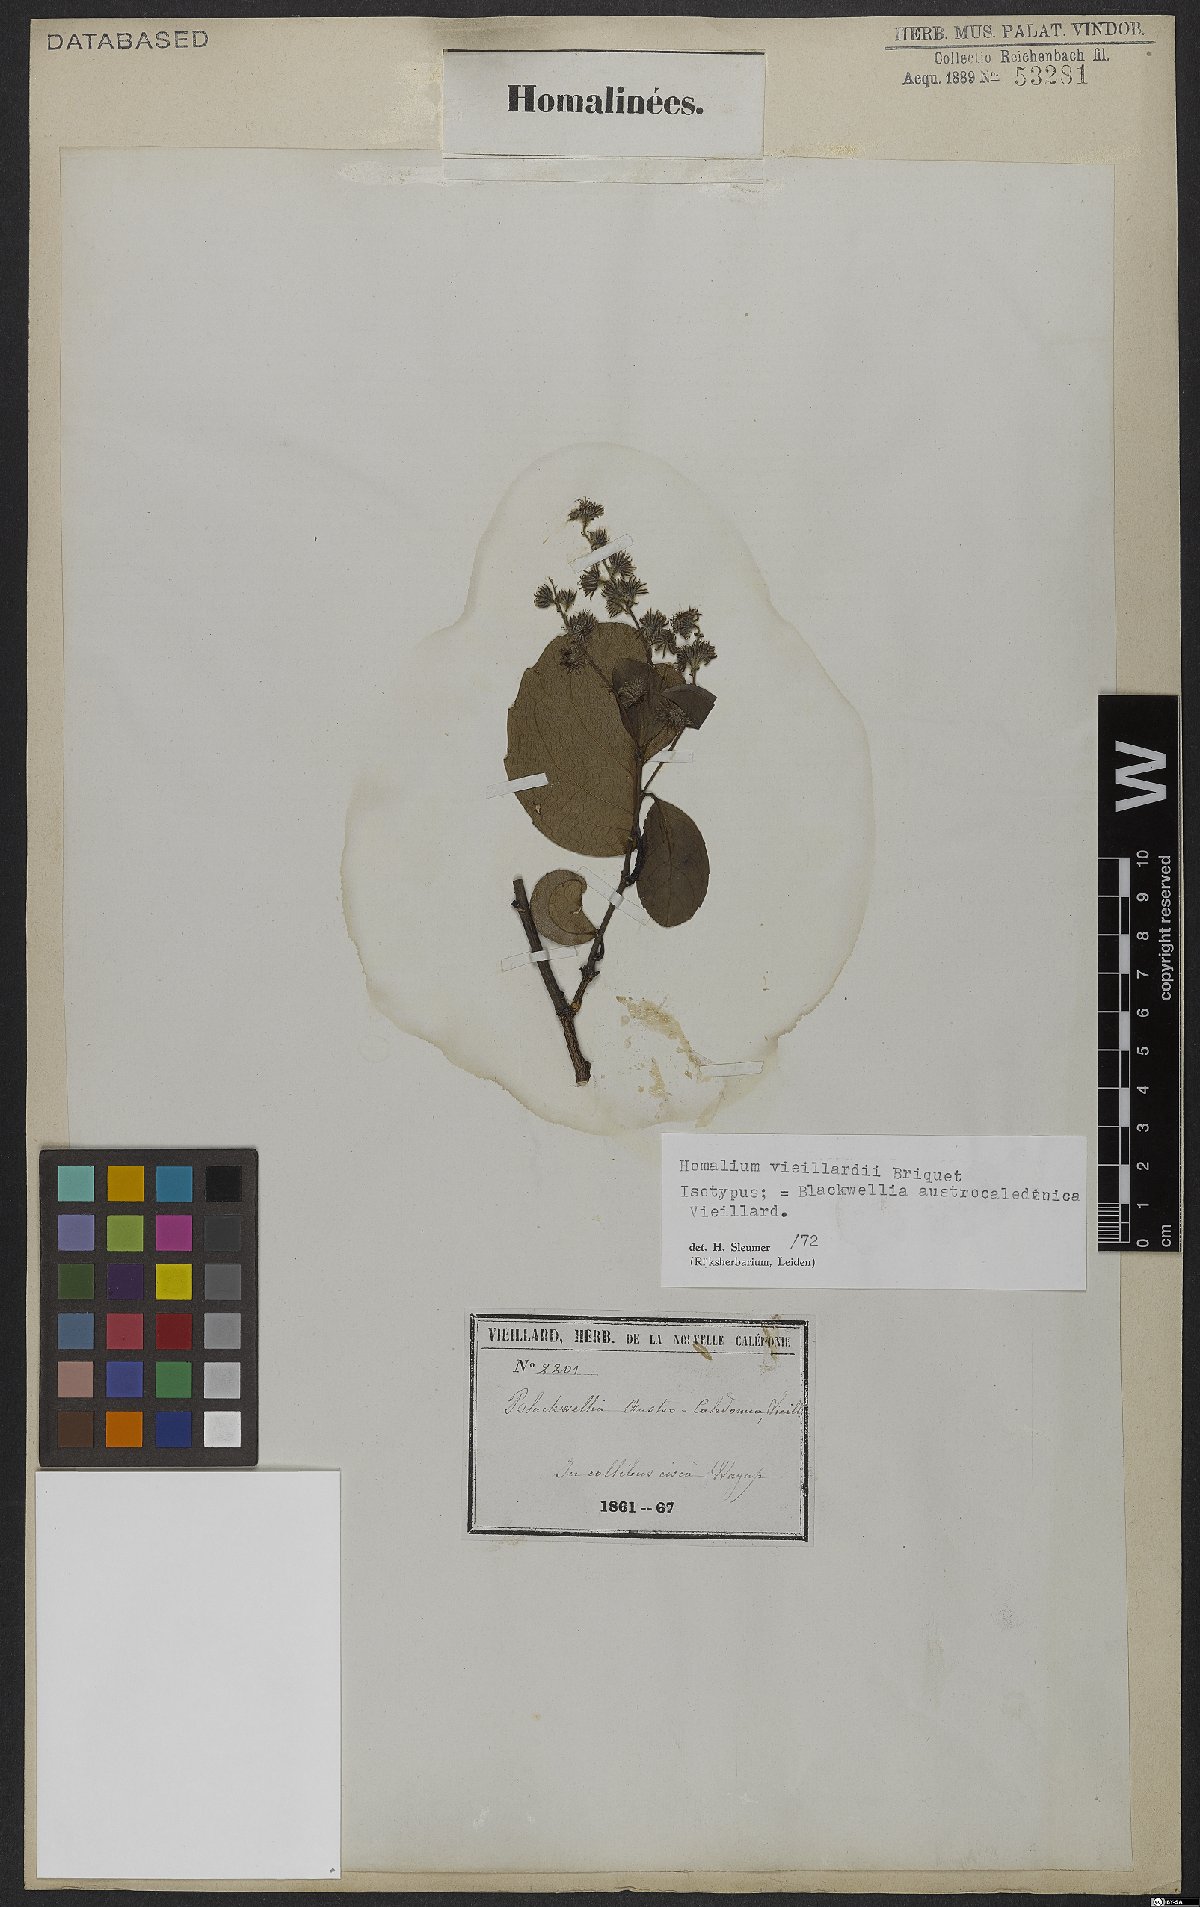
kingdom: Plantae
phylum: Tracheophyta
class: Magnoliopsida
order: Malpighiales
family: Salicaceae
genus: Homalium
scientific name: Homalium decurrens
